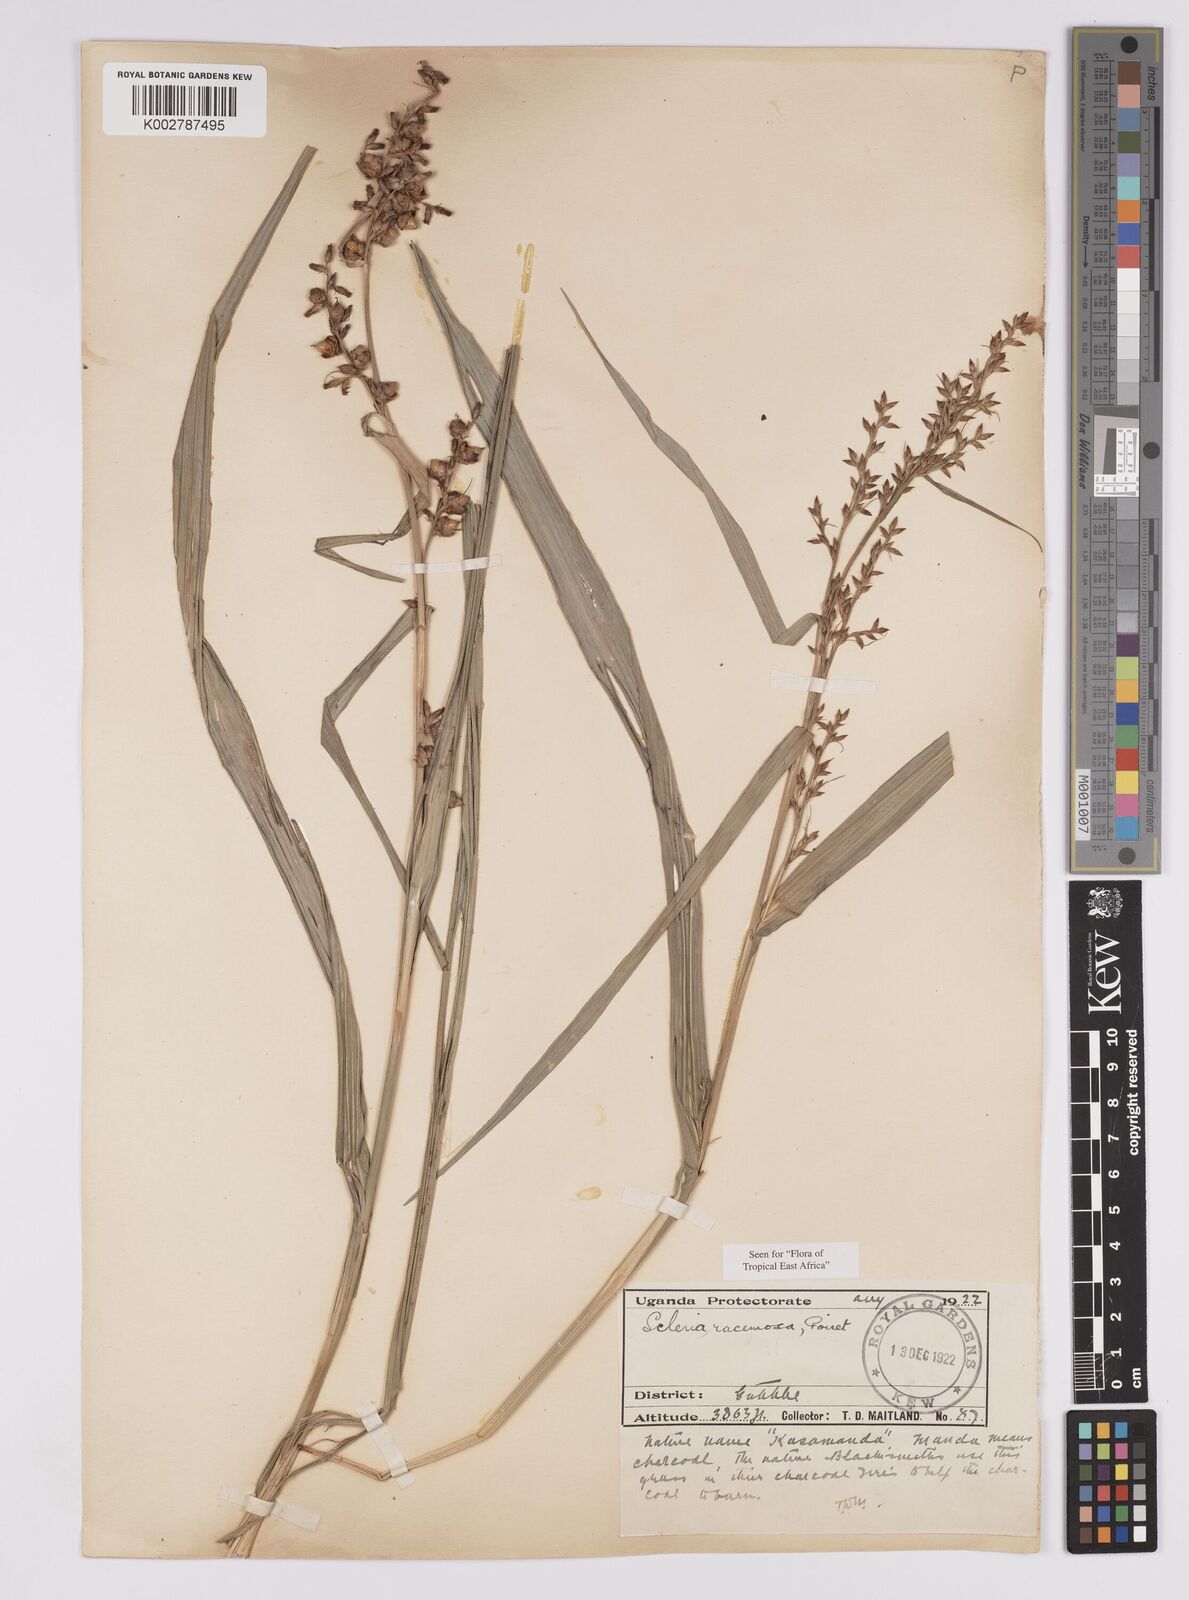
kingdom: Plantae
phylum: Tracheophyta
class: Liliopsida
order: Poales
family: Cyperaceae
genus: Scleria
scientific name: Scleria racemosa
